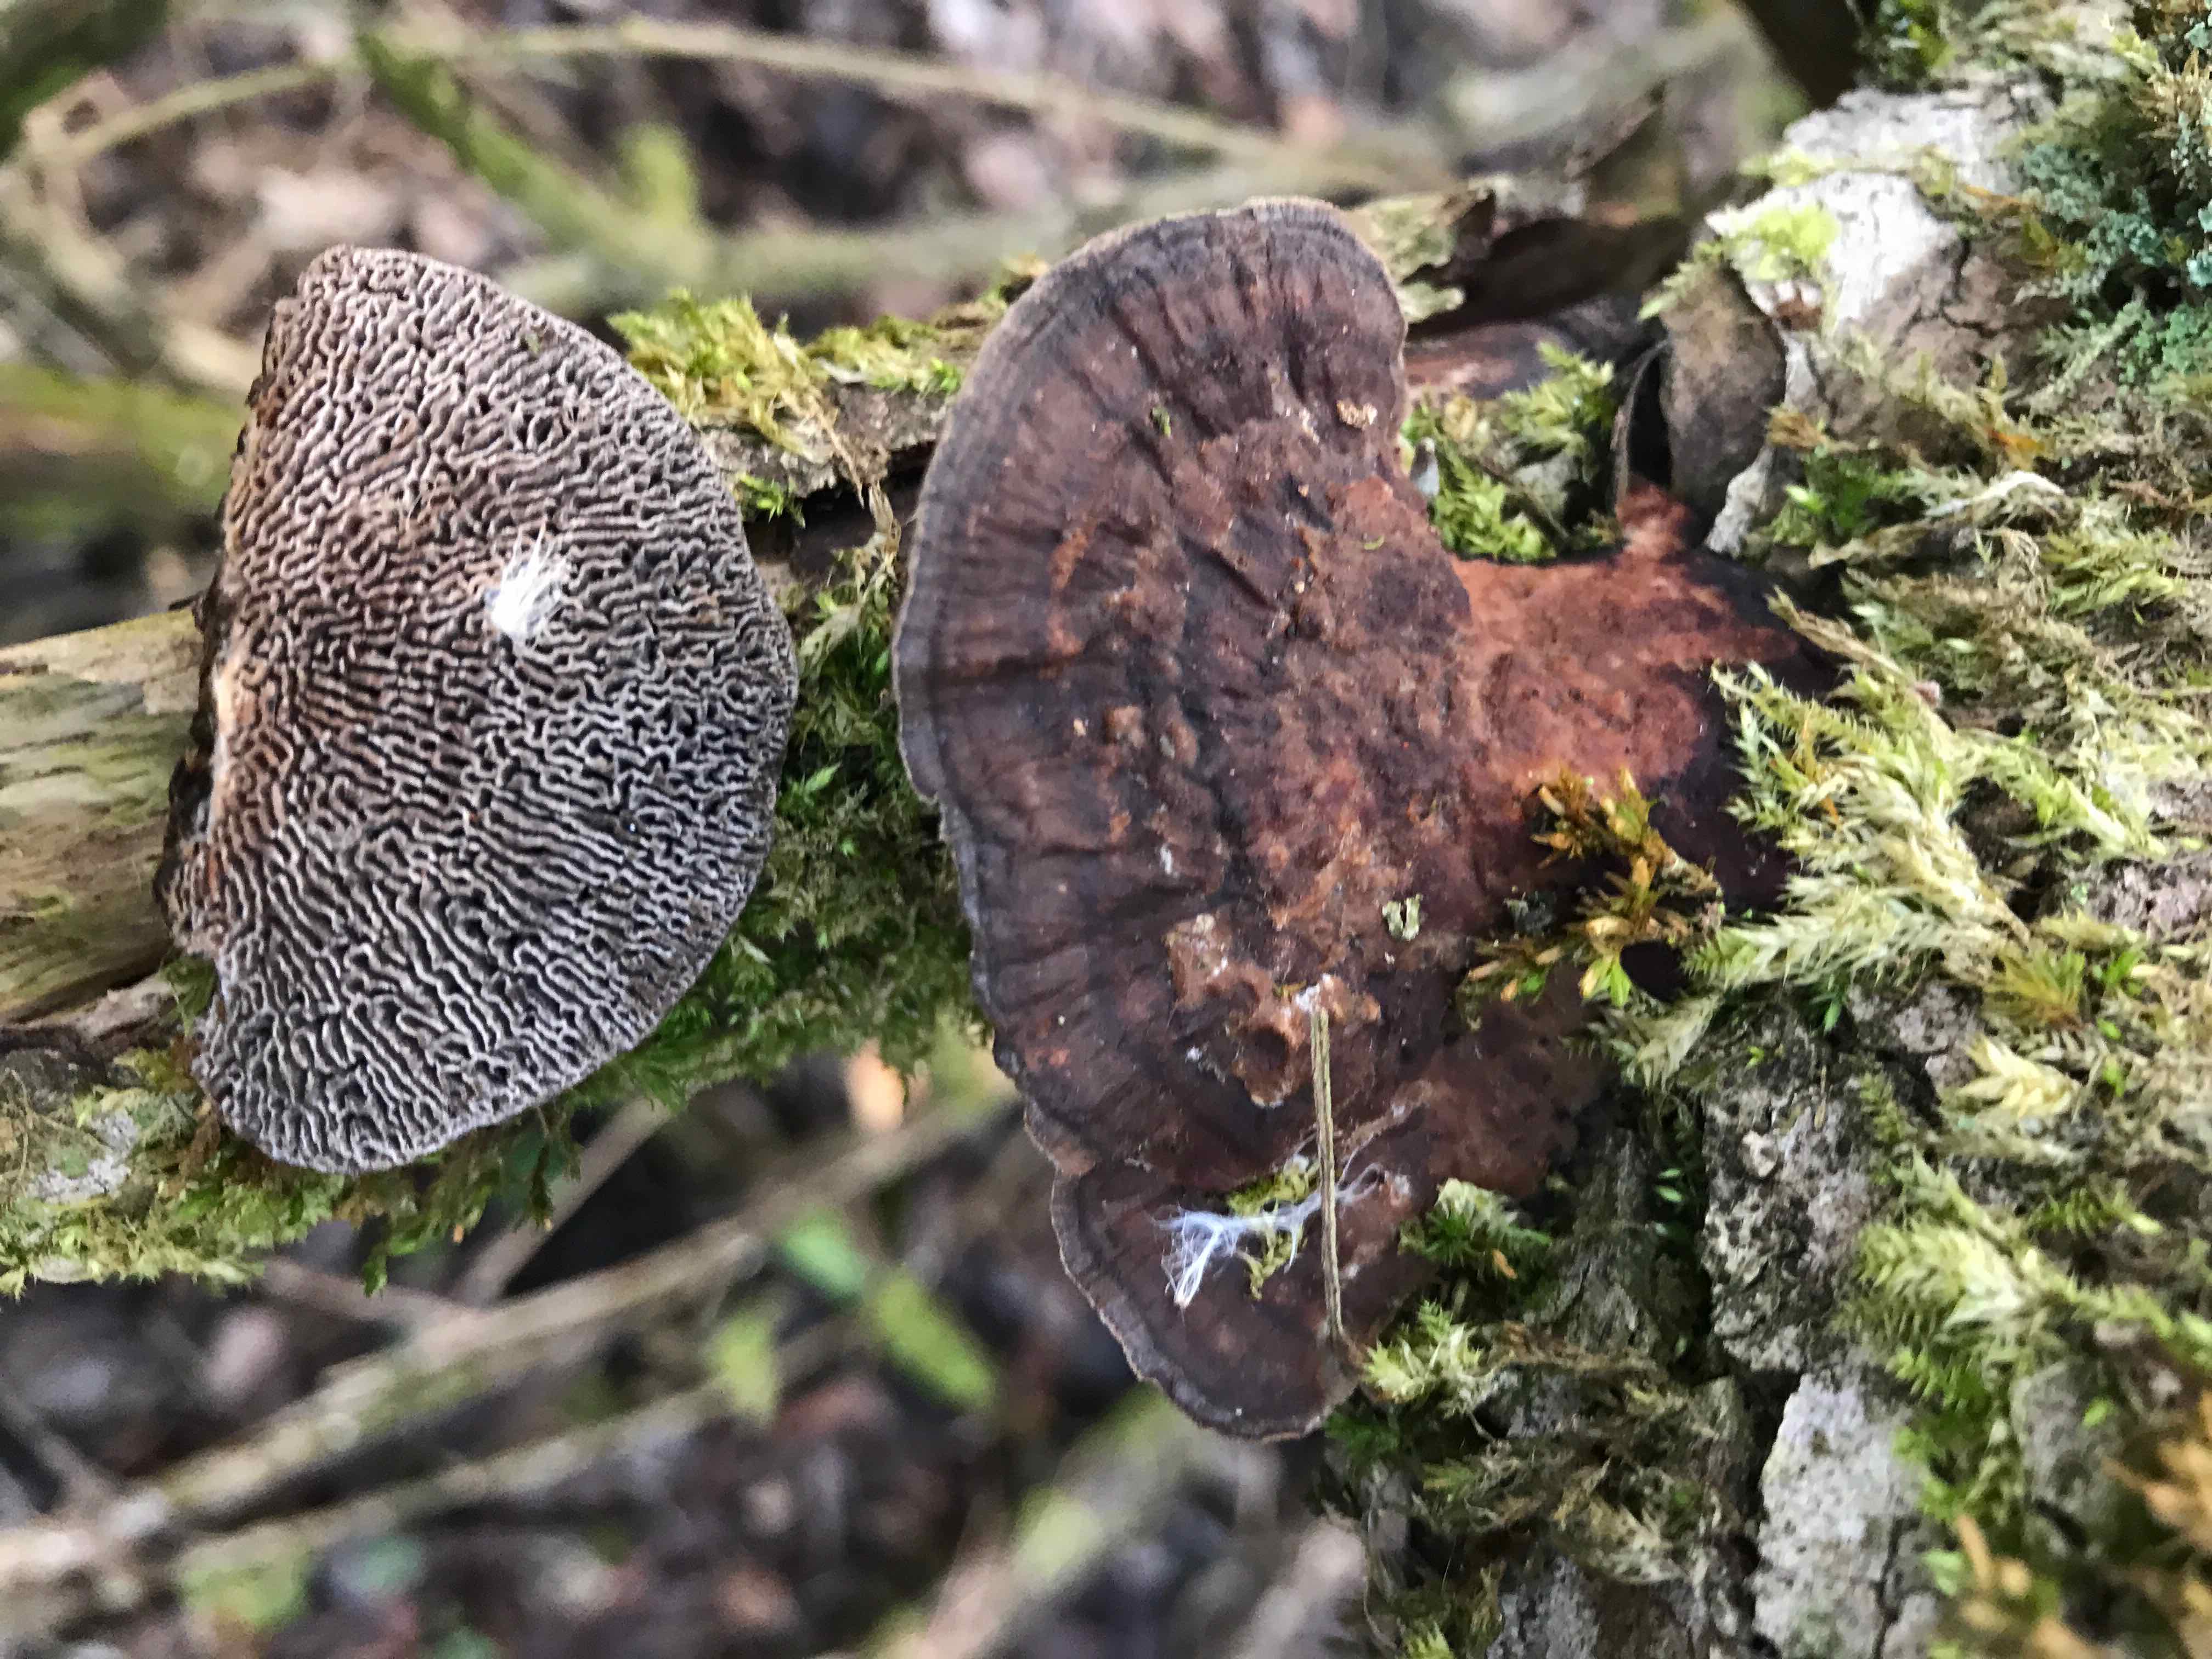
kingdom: Fungi
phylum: Basidiomycota
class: Agaricomycetes
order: Polyporales
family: Polyporaceae
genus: Daedaleopsis
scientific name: Daedaleopsis confragosa
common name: rødmende læderporesvamp
